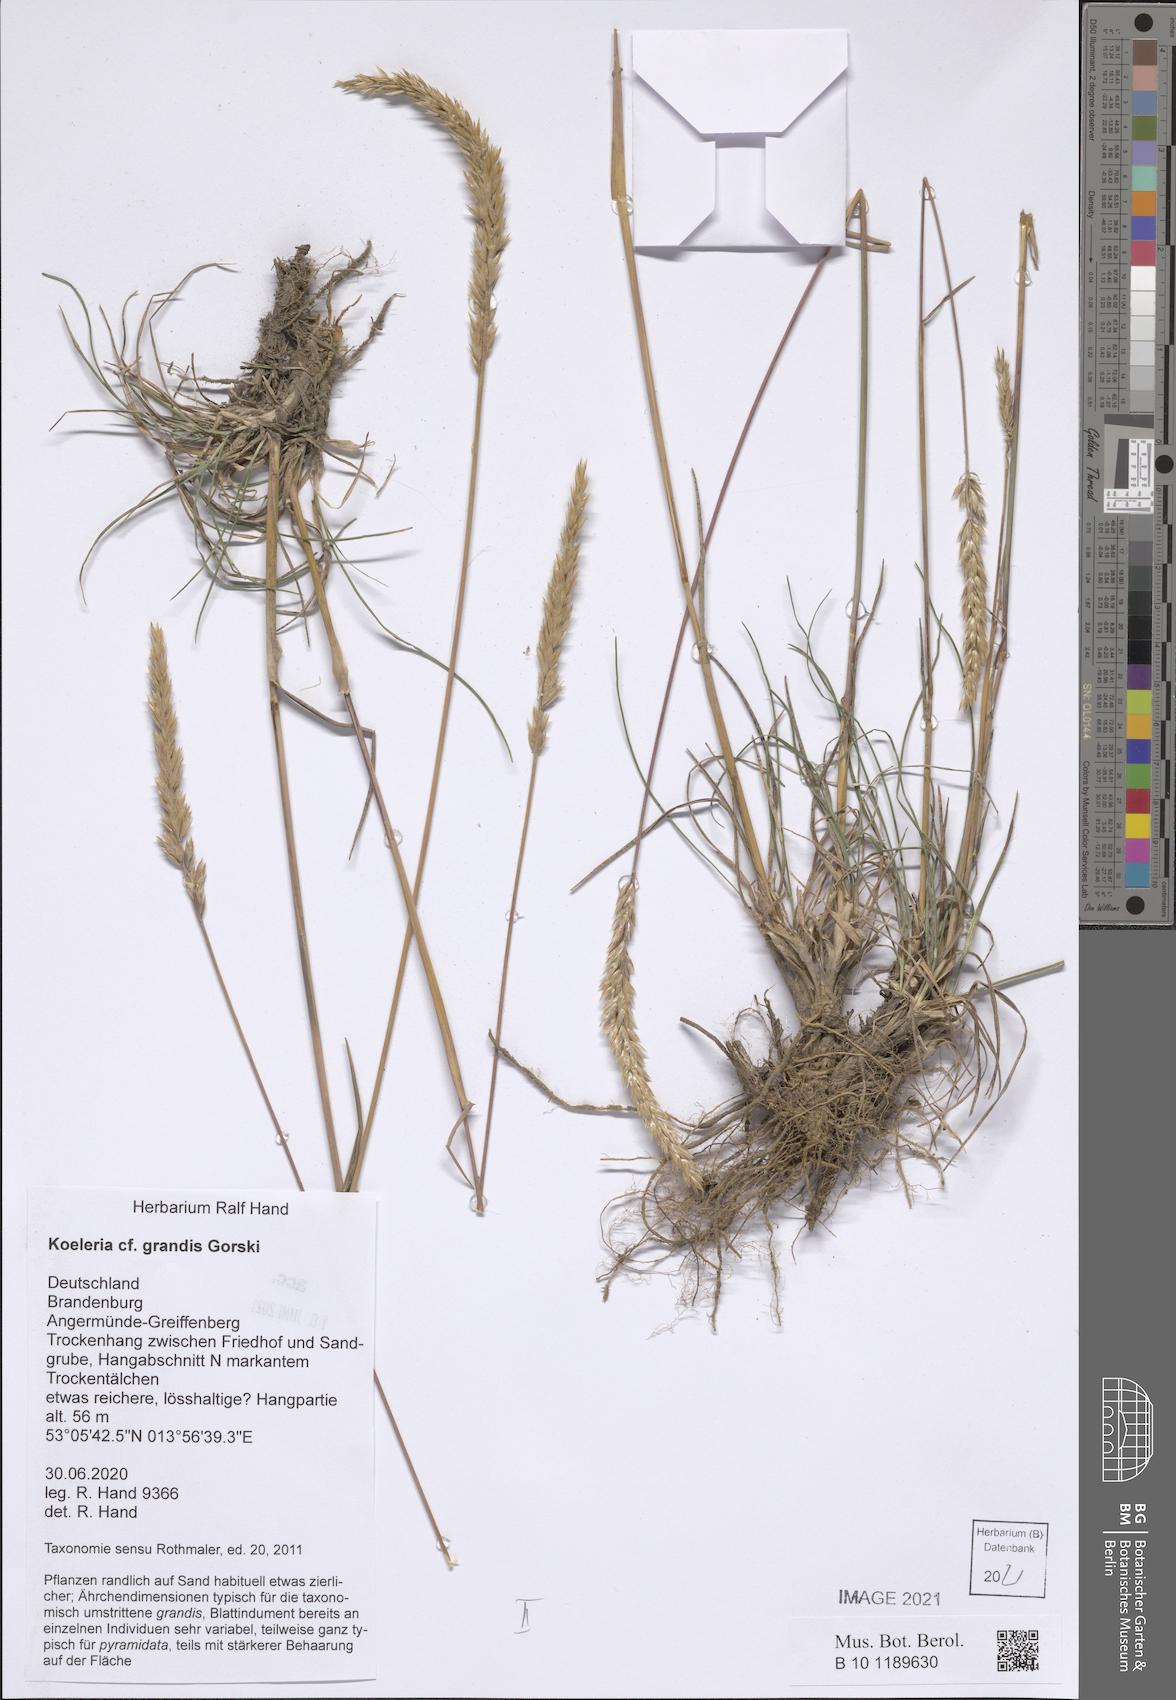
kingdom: Plantae
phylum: Tracheophyta
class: Liliopsida
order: Poales
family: Poaceae
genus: Koeleria
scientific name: Koeleria pyramidata
